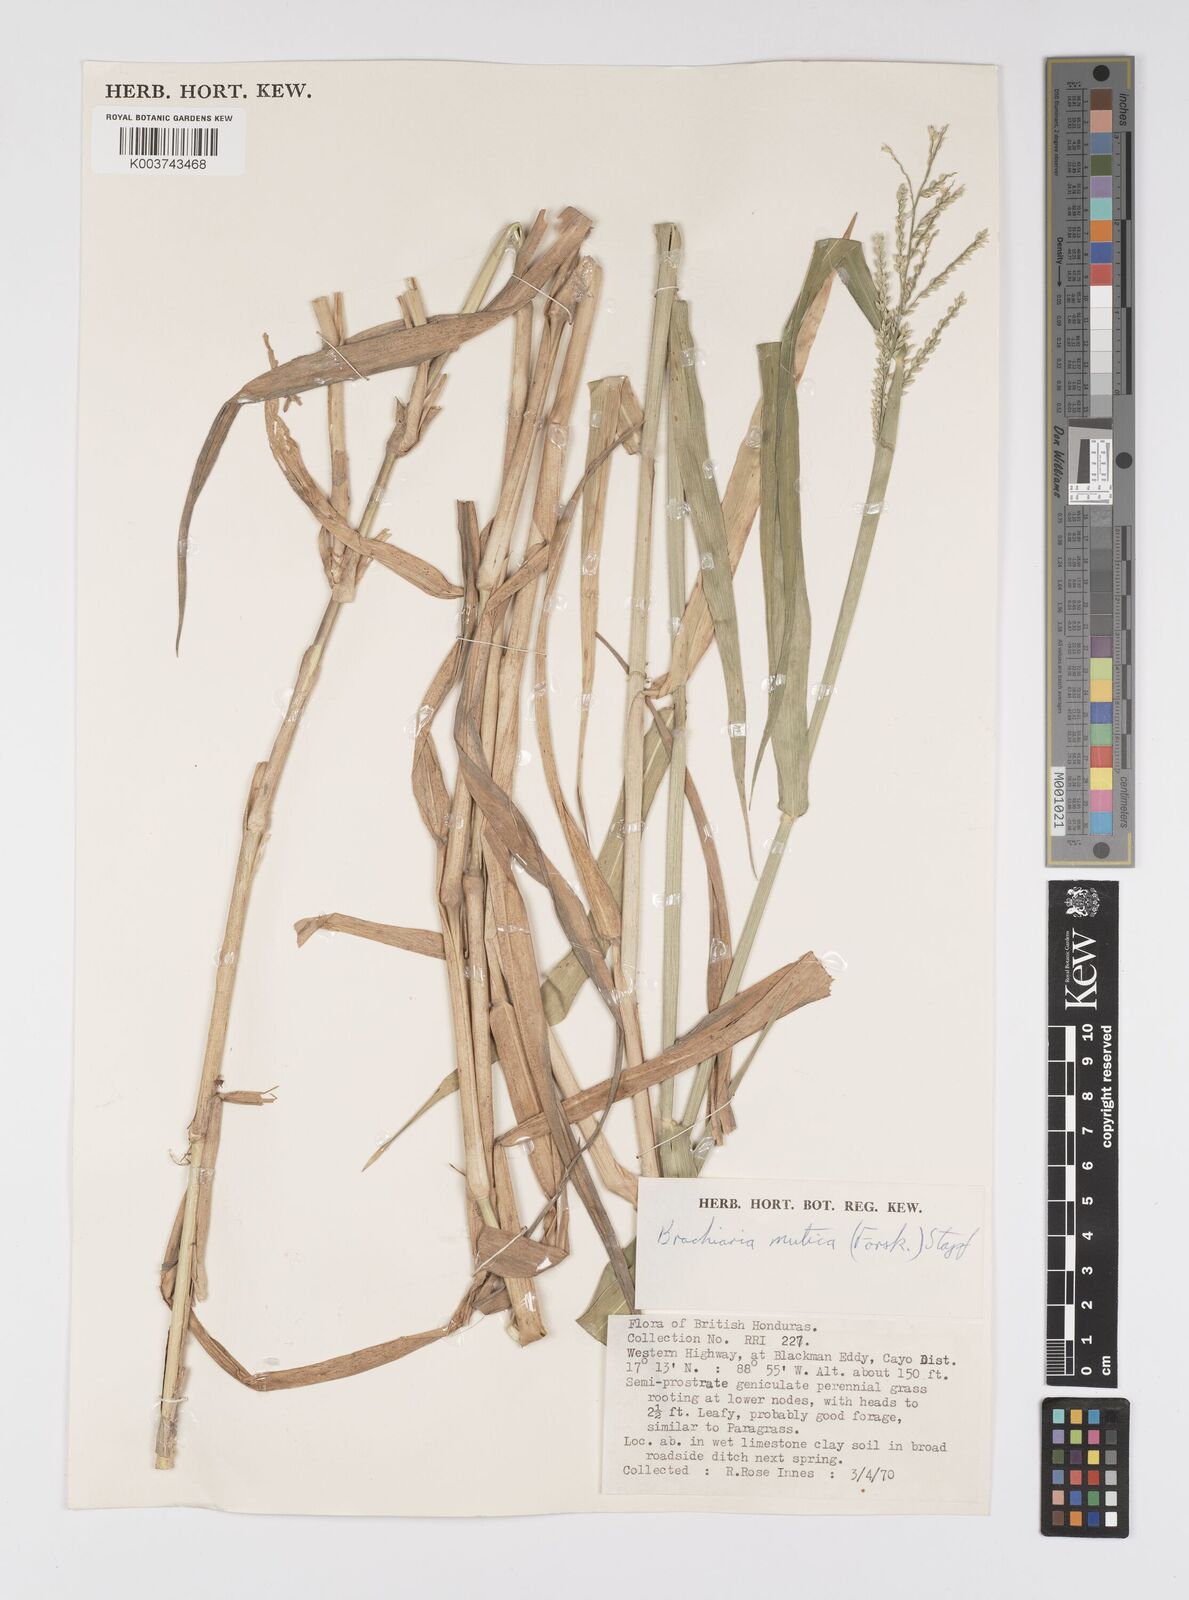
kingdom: Plantae
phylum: Tracheophyta
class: Liliopsida
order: Poales
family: Poaceae
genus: Urochloa
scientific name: Urochloa mutica
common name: Para grass
